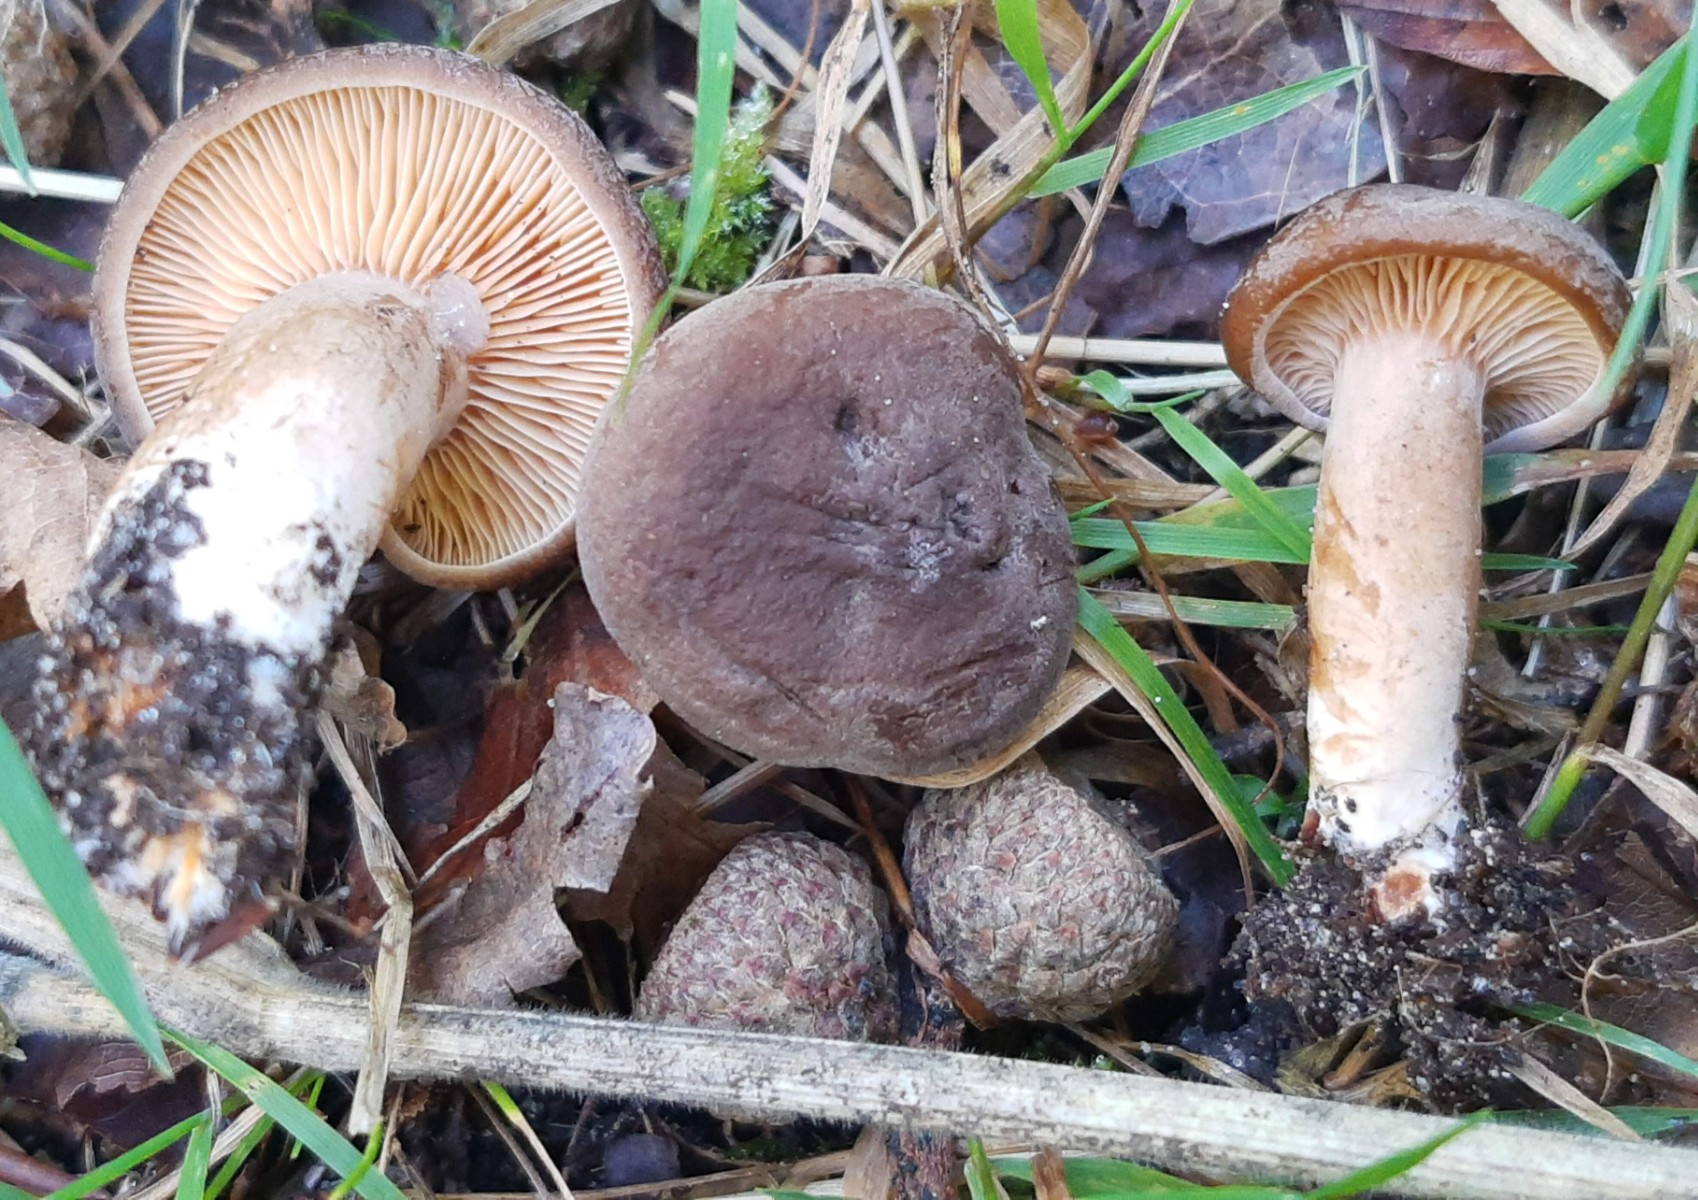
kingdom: Fungi
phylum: Basidiomycota
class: Agaricomycetes
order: Russulales
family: Russulaceae
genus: Lactarius
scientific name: Lactarius serifluus
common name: tæge-mælkehat
